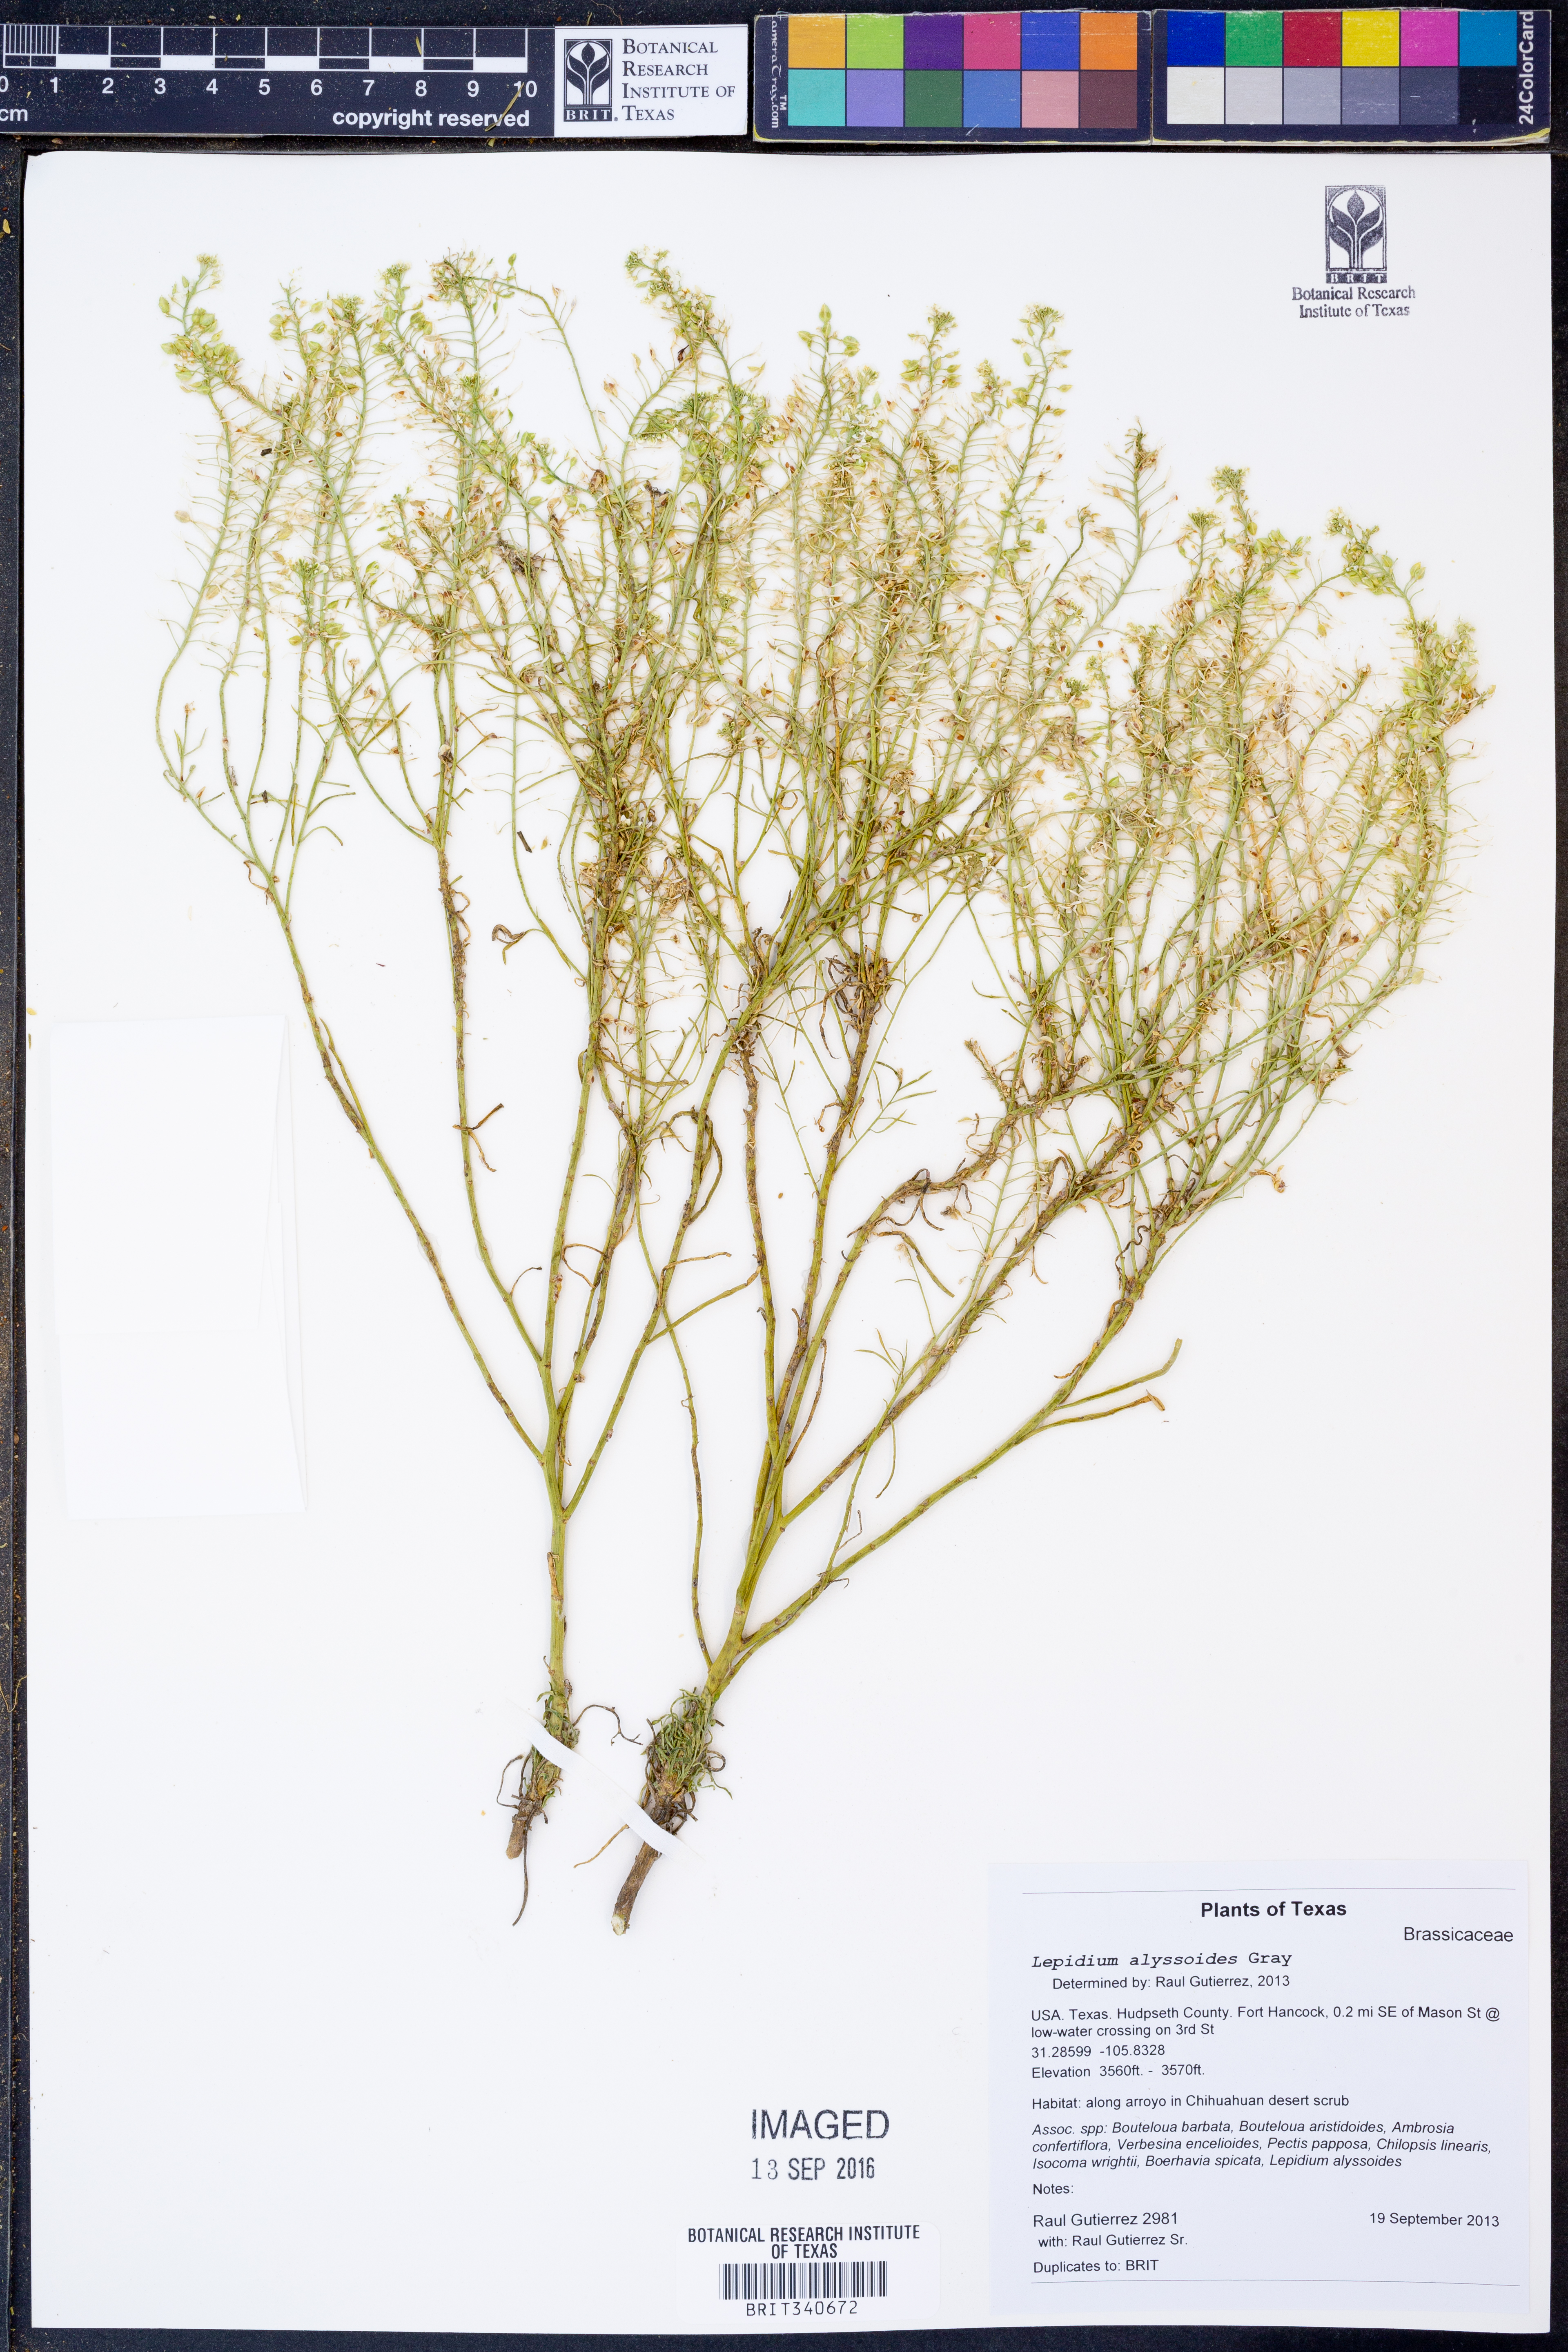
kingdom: Plantae
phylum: Tracheophyta
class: Magnoliopsida
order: Brassicales
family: Brassicaceae
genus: Lepidium
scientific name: Lepidium alyssoides
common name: Mesa pepperweed
